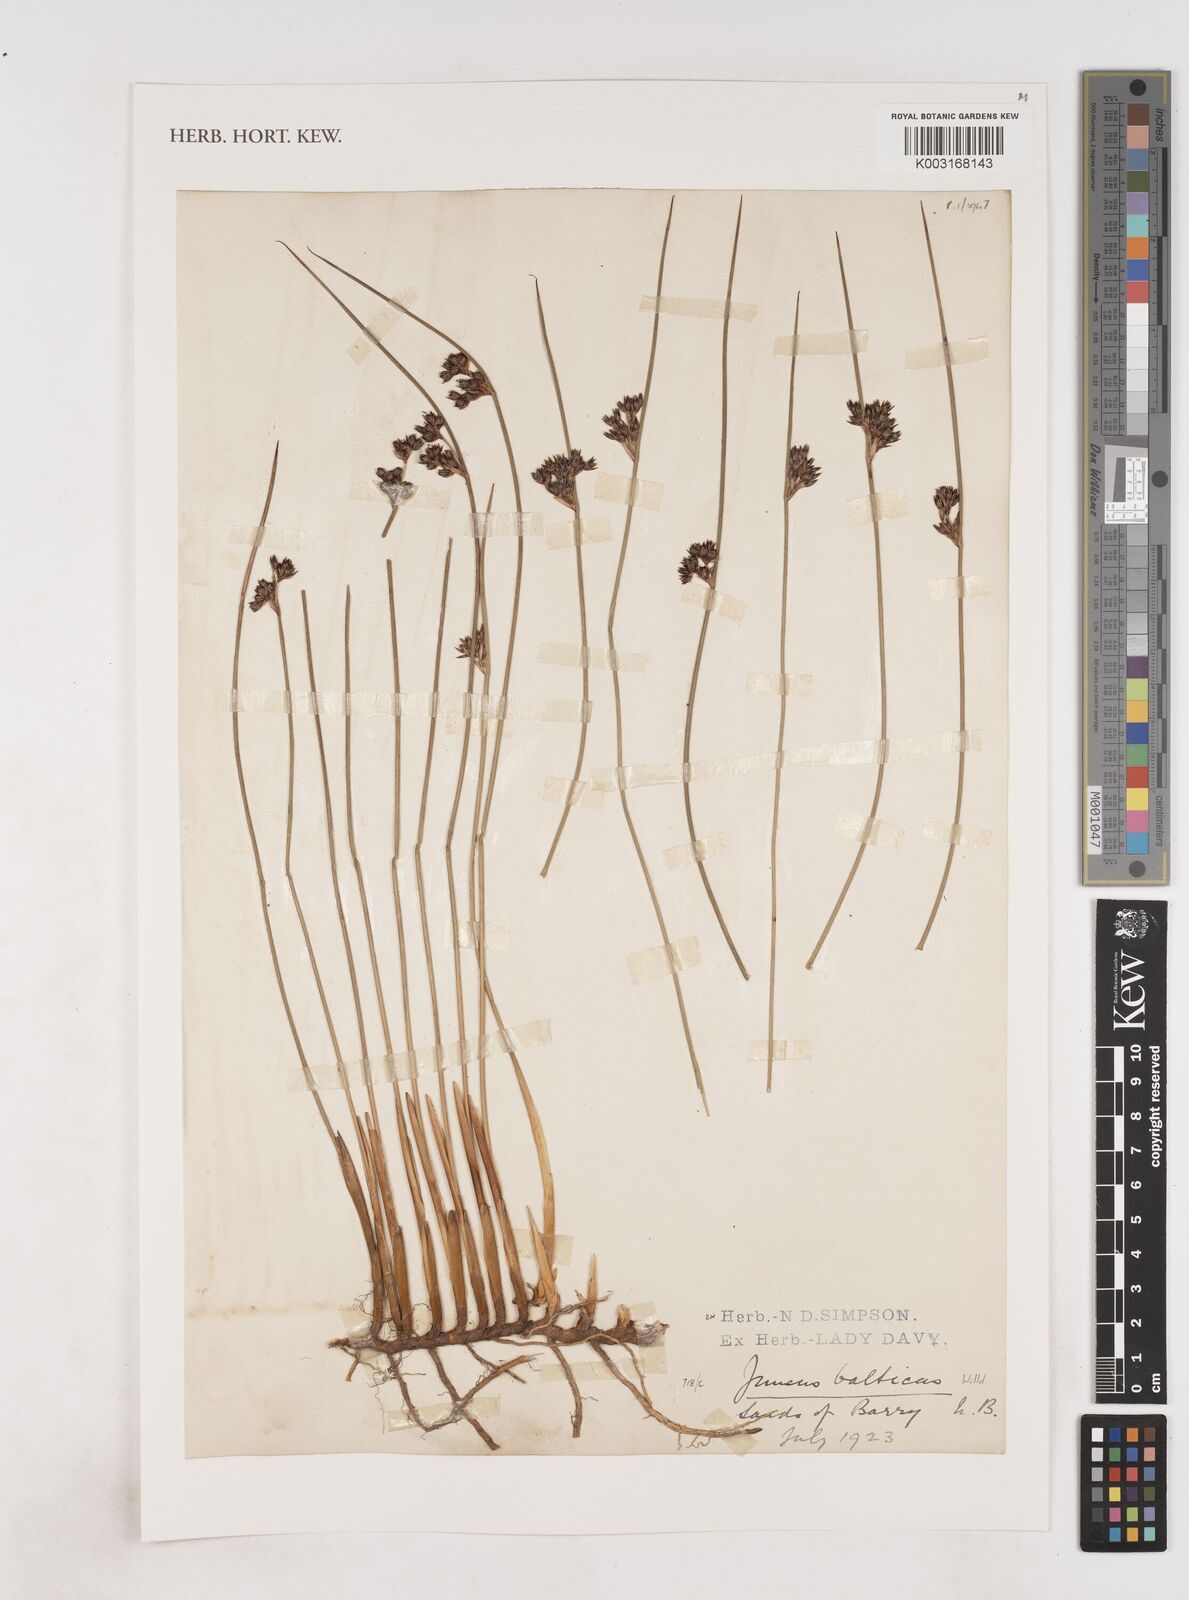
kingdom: Plantae
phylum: Tracheophyta
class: Liliopsida
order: Poales
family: Juncaceae
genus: Juncus
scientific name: Juncus balticus
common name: Baltic rush
